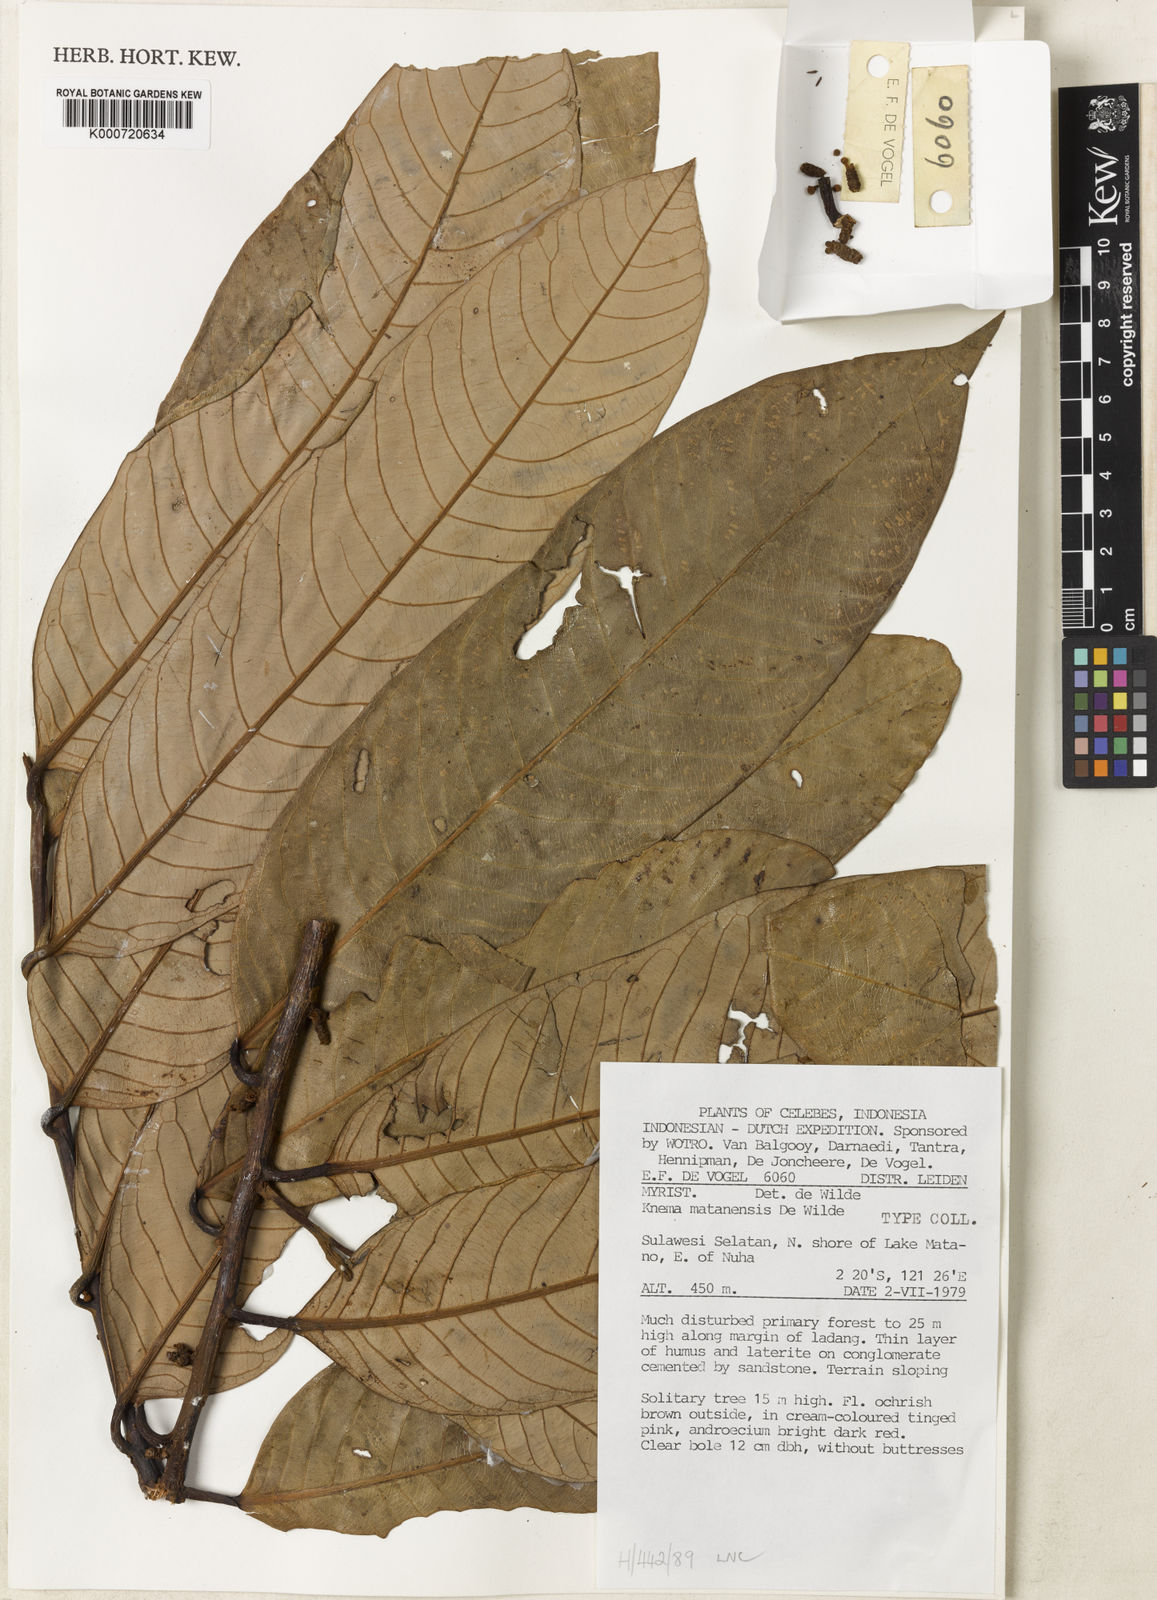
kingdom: Plantae
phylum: Tracheophyta
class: Magnoliopsida
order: Magnoliales
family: Myristicaceae
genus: Knema
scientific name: Knema matanensis
